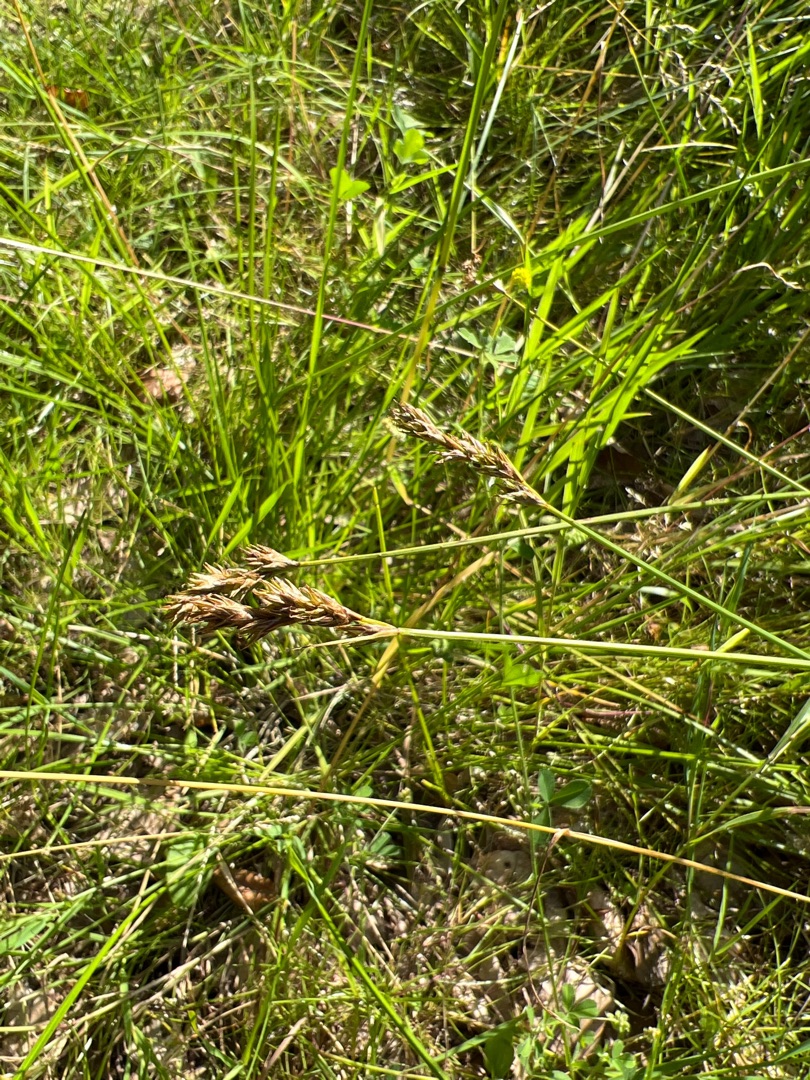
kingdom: Plantae
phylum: Tracheophyta
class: Liliopsida
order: Poales
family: Cyperaceae
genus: Carex
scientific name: Carex leporina
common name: Hare-star
